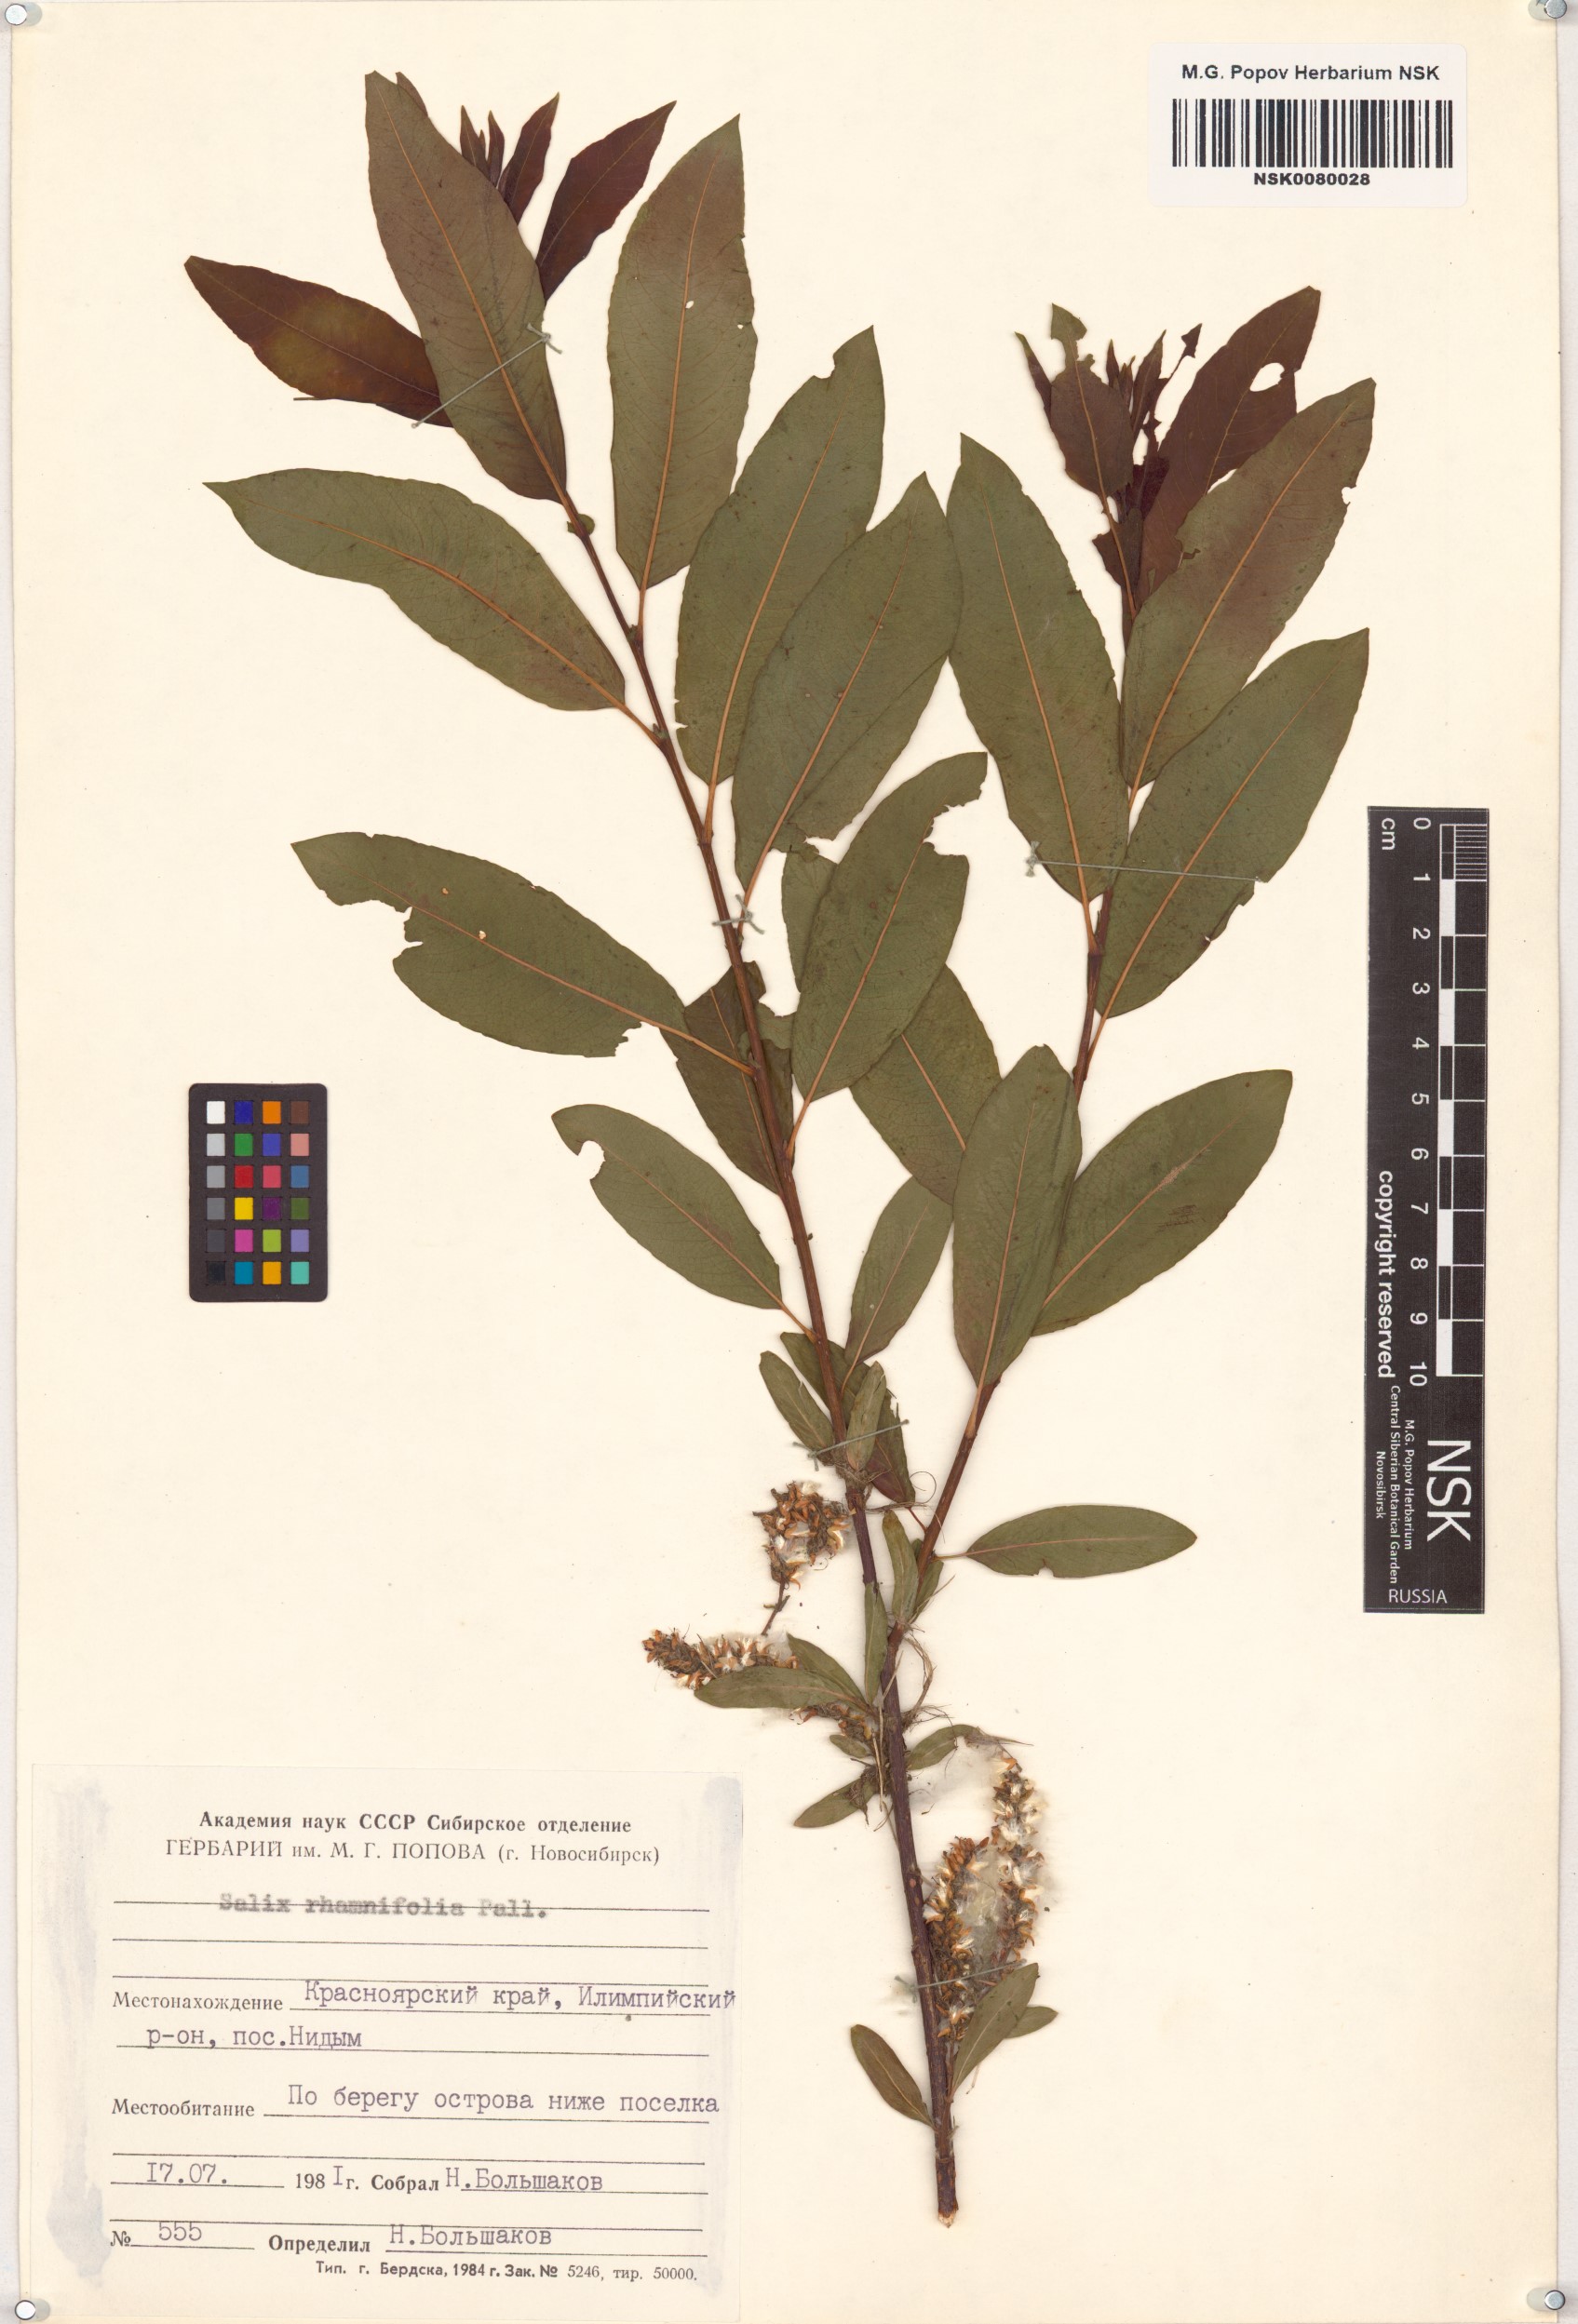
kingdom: Plantae
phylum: Tracheophyta
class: Magnoliopsida
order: Malpighiales
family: Salicaceae
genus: Salix
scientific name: Salix rhamnifolia
